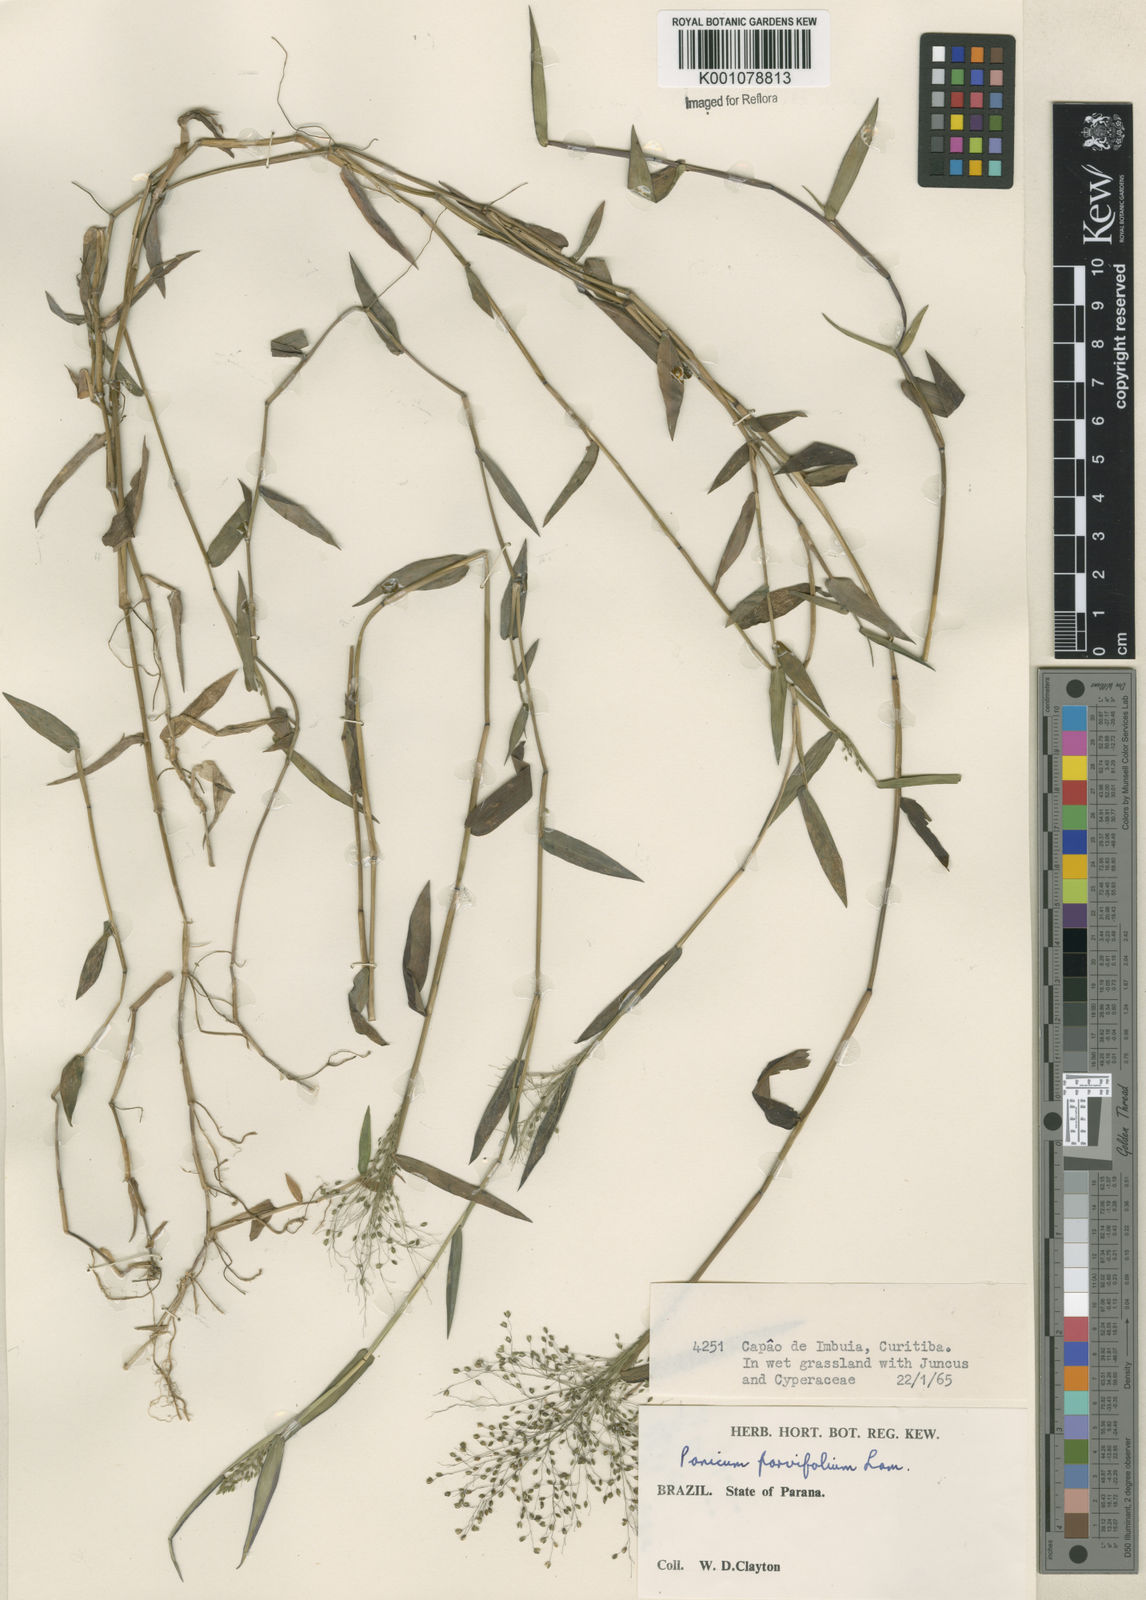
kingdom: Plantae
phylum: Tracheophyta
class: Liliopsida
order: Poales
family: Poaceae
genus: Trichanthecium
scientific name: Trichanthecium schwackeanum
